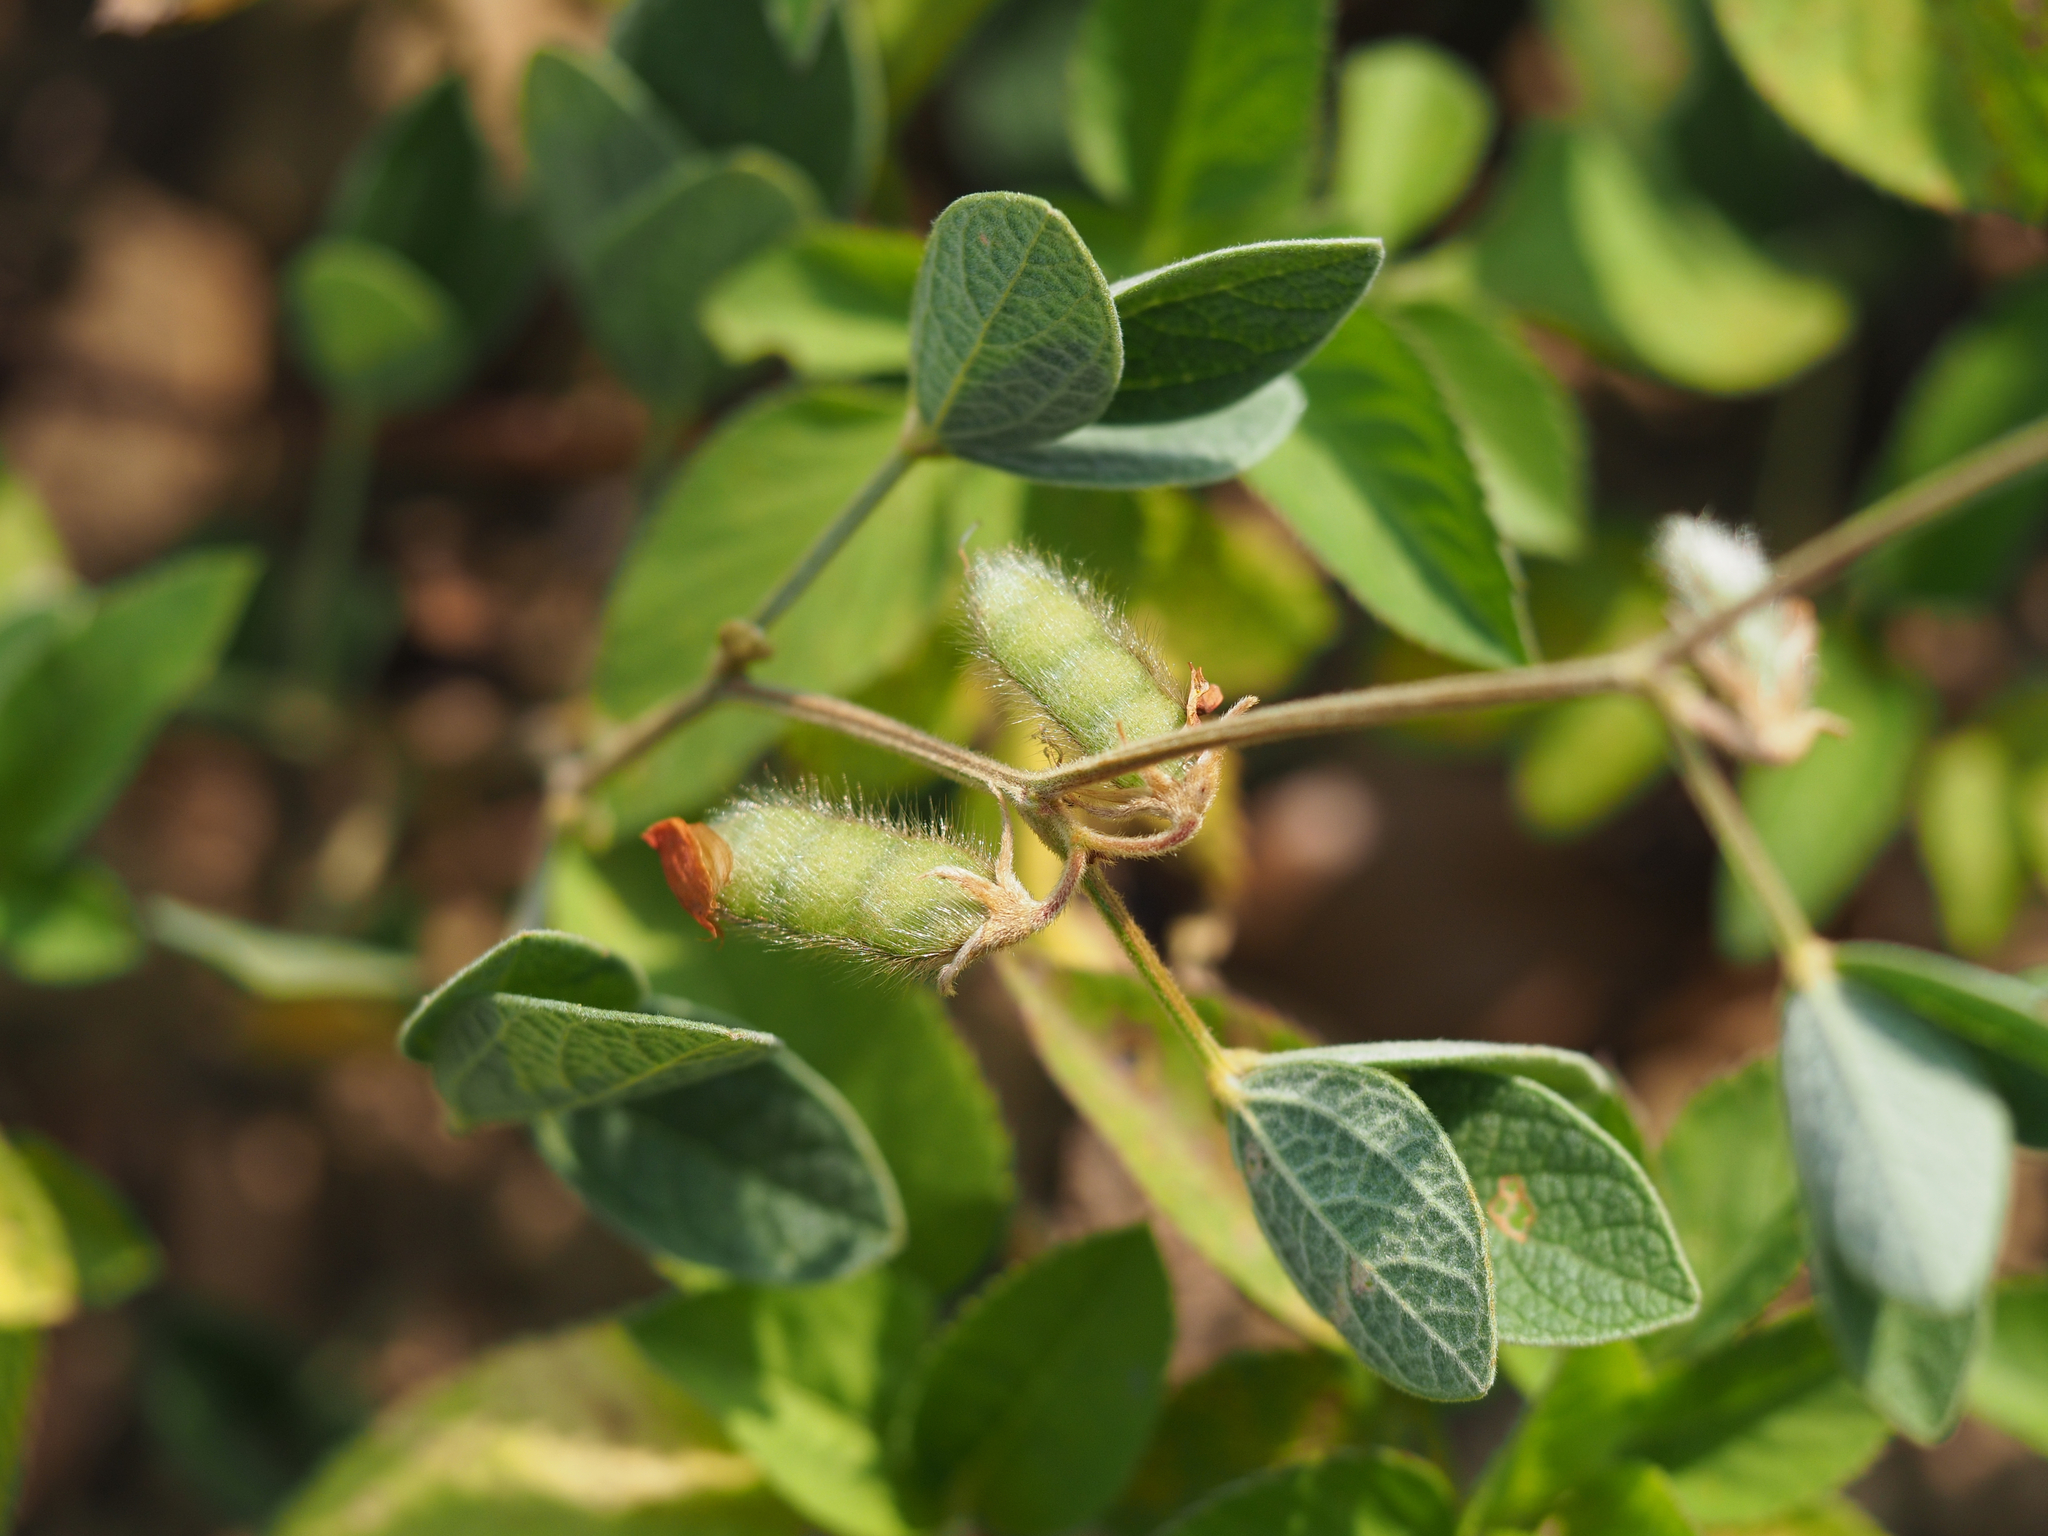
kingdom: Plantae
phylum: Tracheophyta
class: Magnoliopsida
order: Fabales
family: Fabaceae
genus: Cajanus
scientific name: Cajanus scarabaeoides
